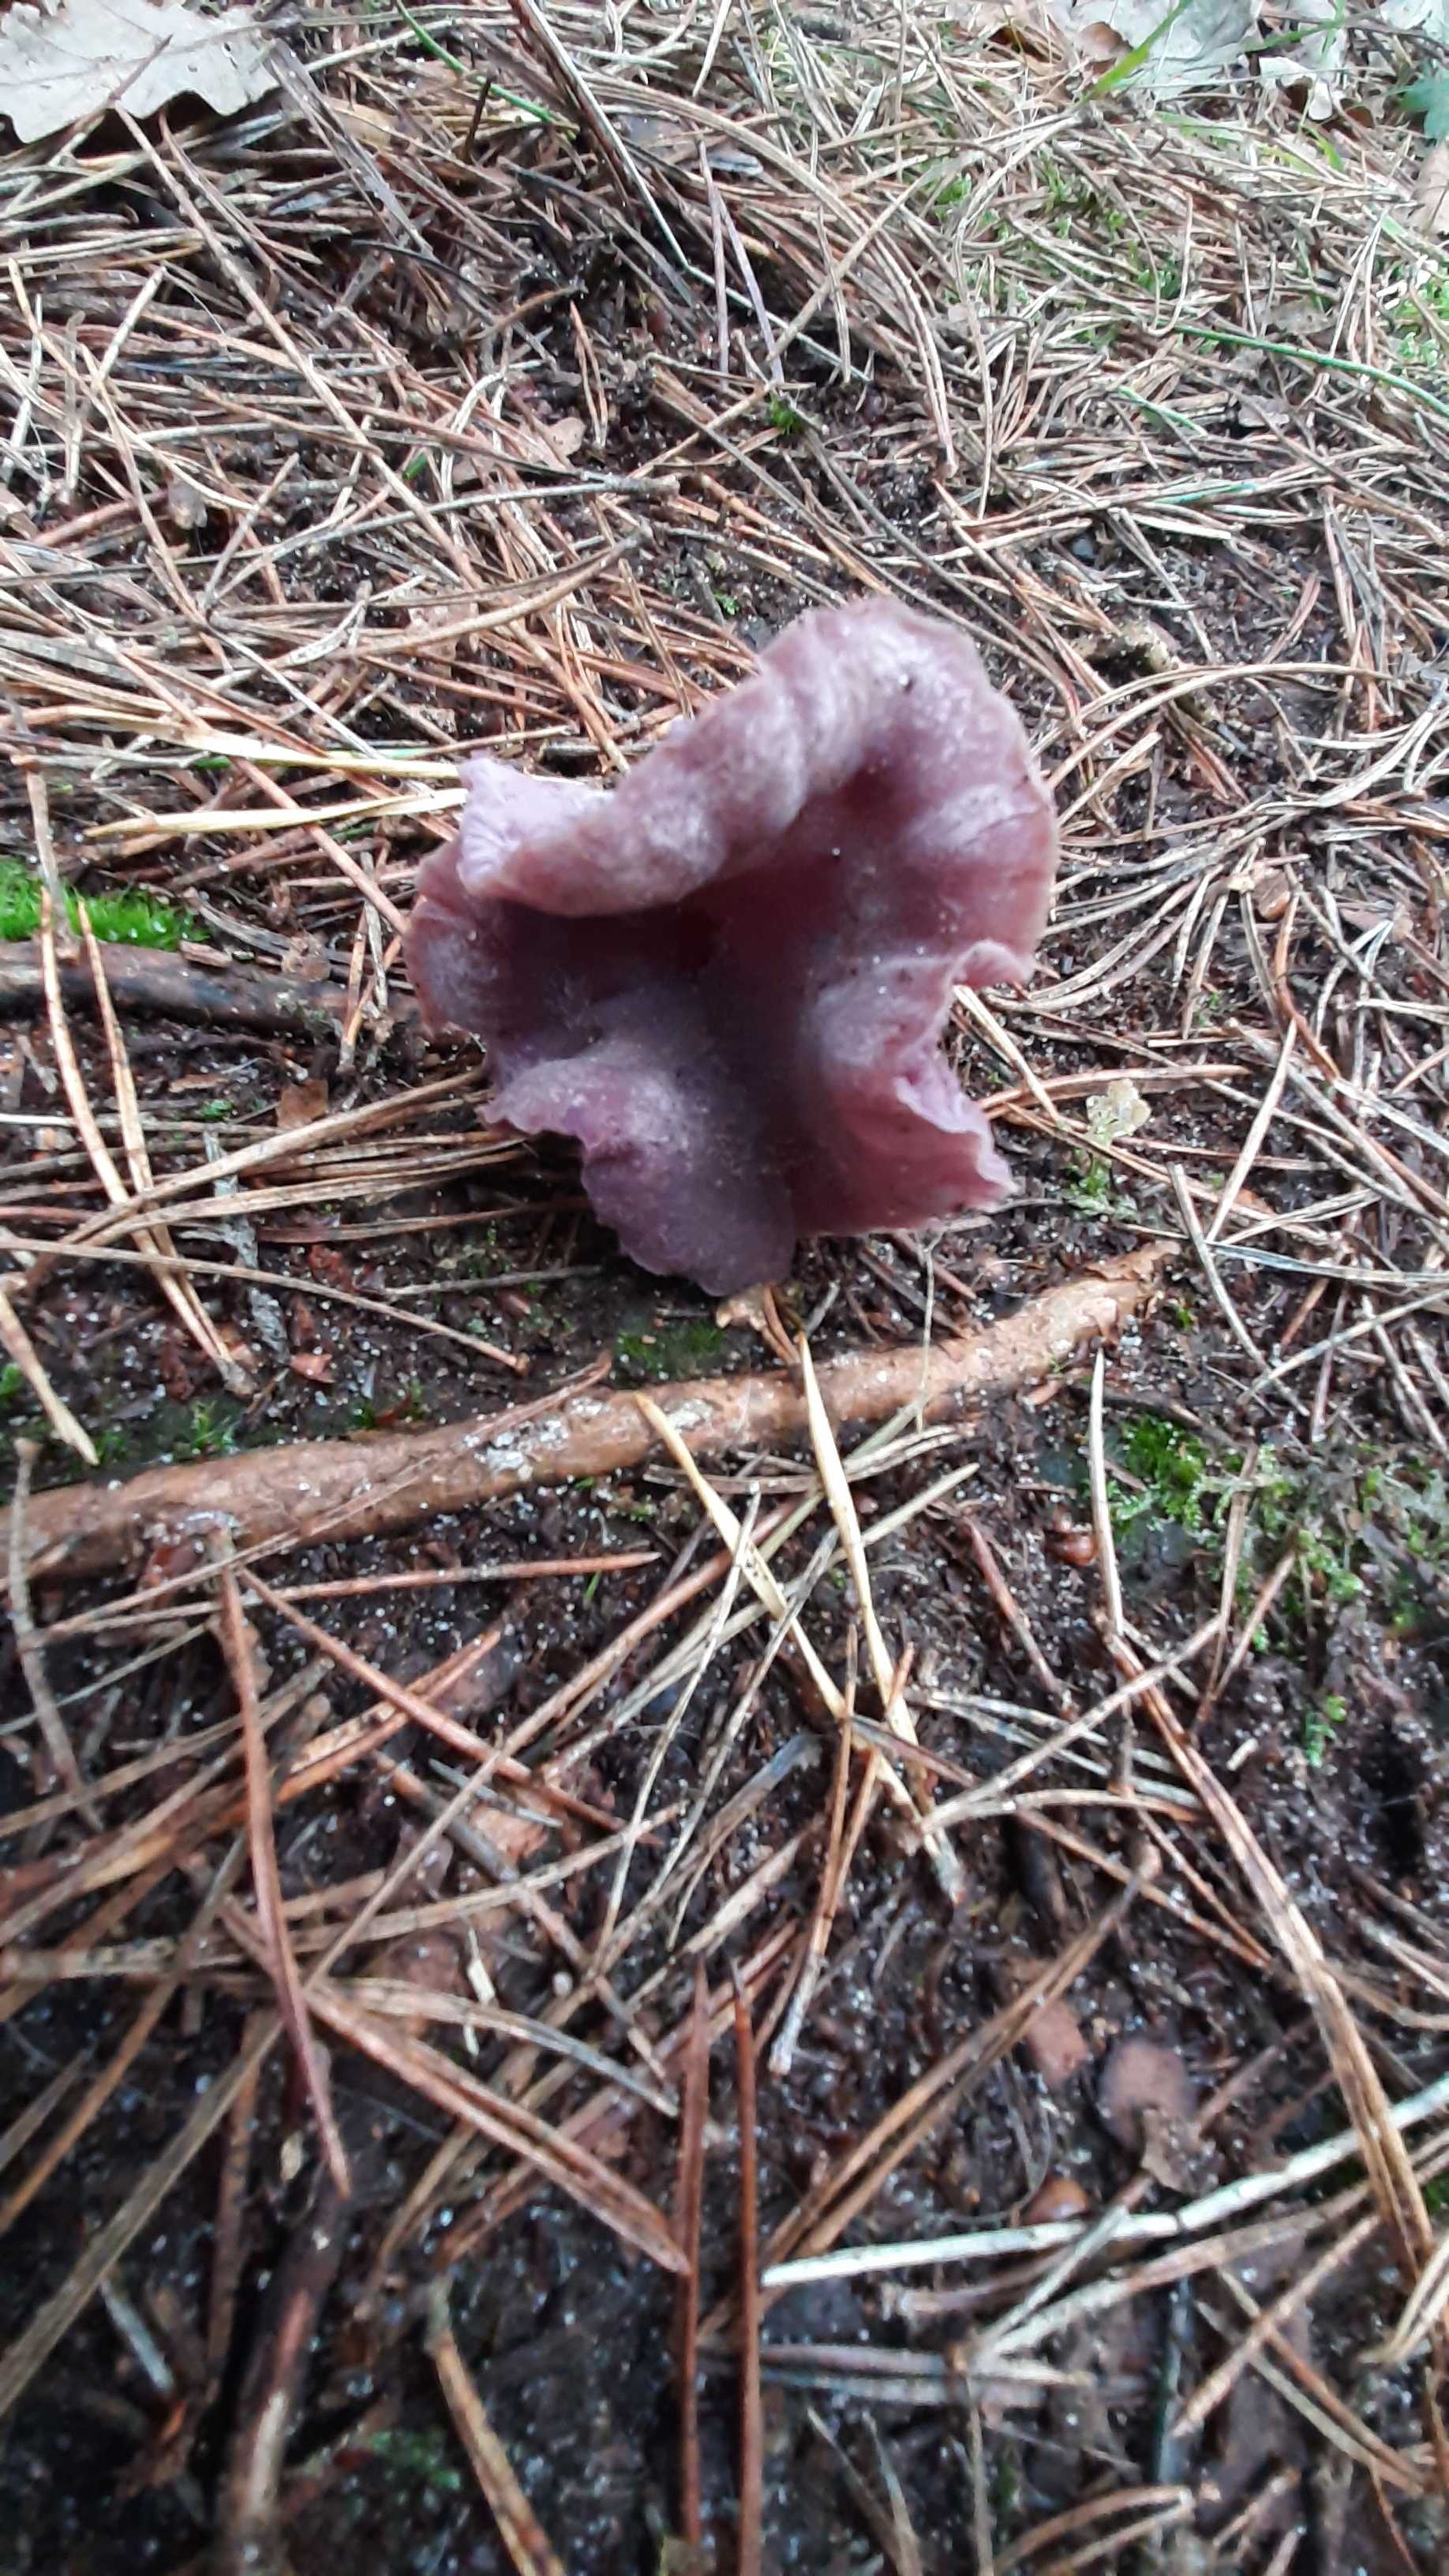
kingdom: Fungi
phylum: Basidiomycota
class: Agaricomycetes
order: Agaricales
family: Hydnangiaceae
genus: Laccaria
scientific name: Laccaria amethystina
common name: violet ametysthat
